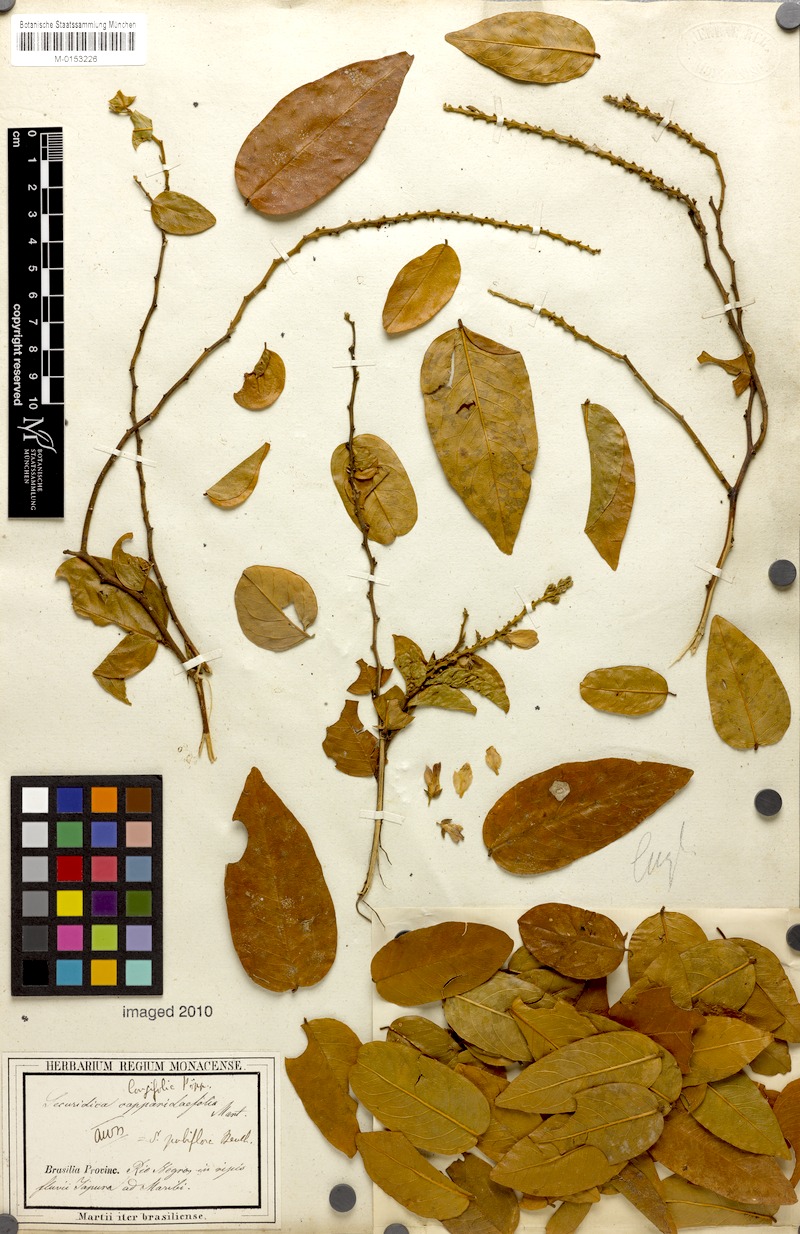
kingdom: Plantae
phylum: Tracheophyta
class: Magnoliopsida
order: Fabales
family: Polygalaceae
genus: Securidaca
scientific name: Securidaca longifolia
